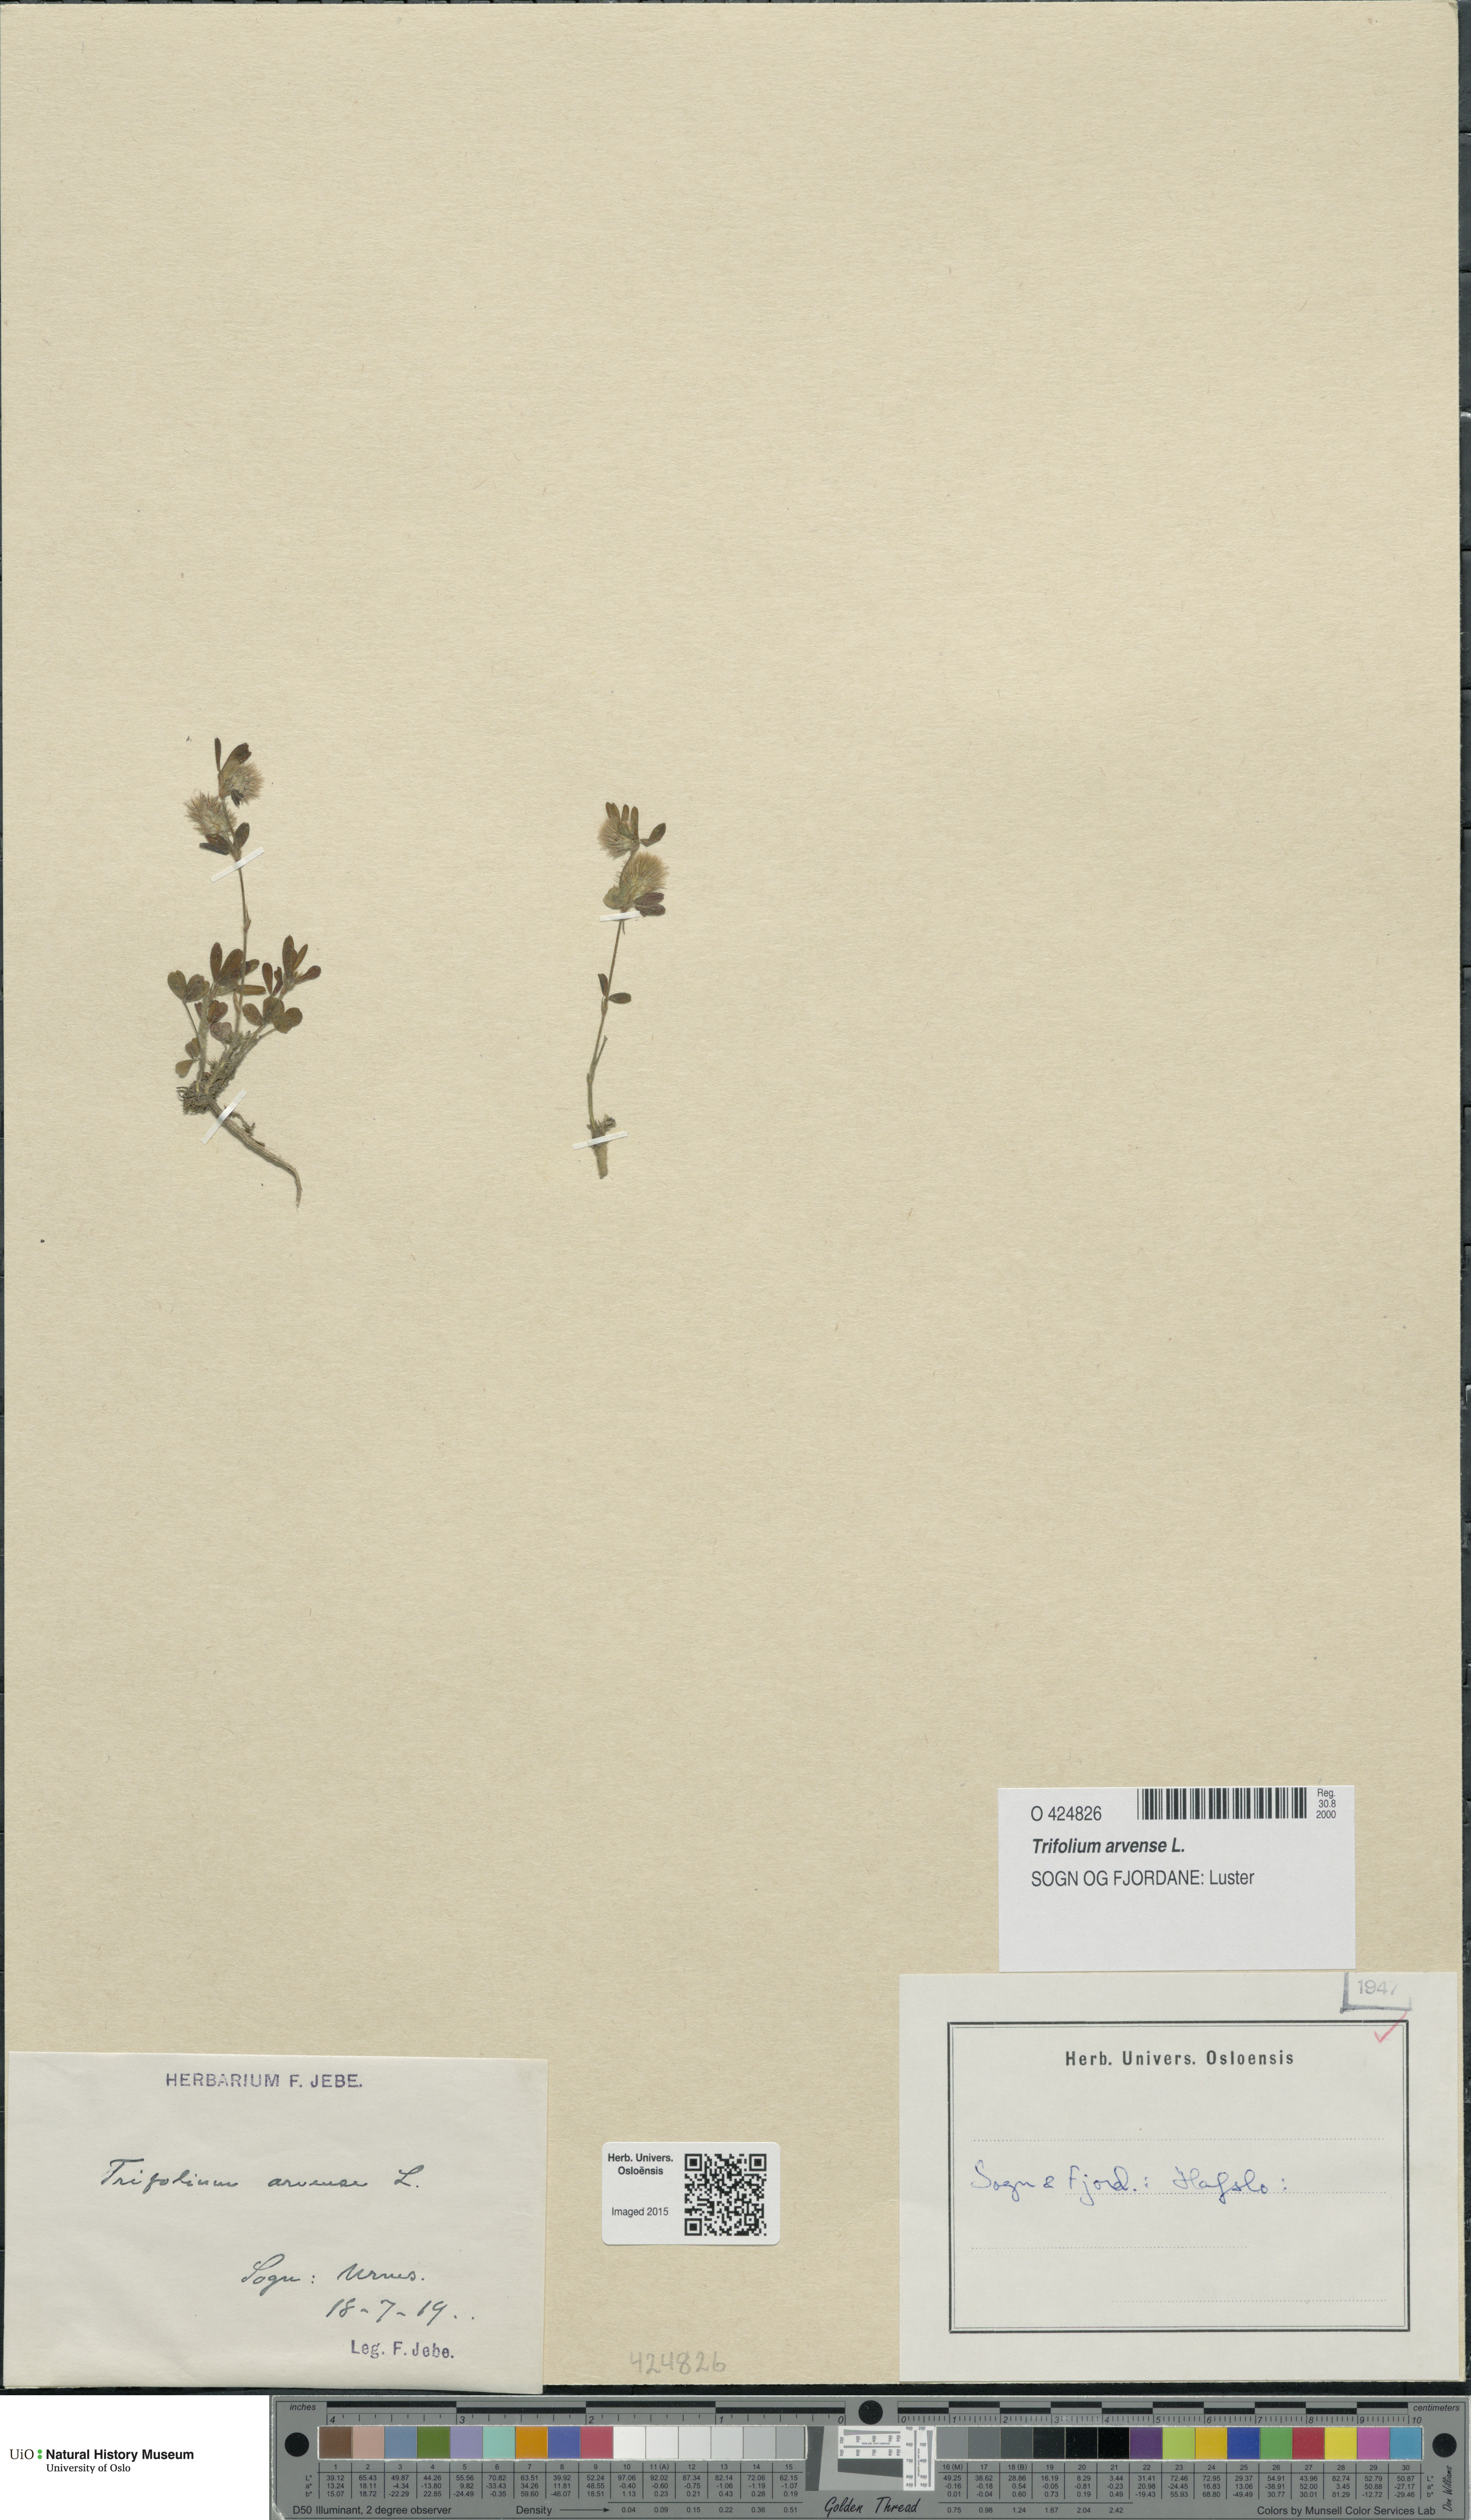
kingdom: Plantae
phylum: Tracheophyta
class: Magnoliopsida
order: Fabales
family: Fabaceae
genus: Trifolium
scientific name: Trifolium arvense
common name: Hare's-foot clover
